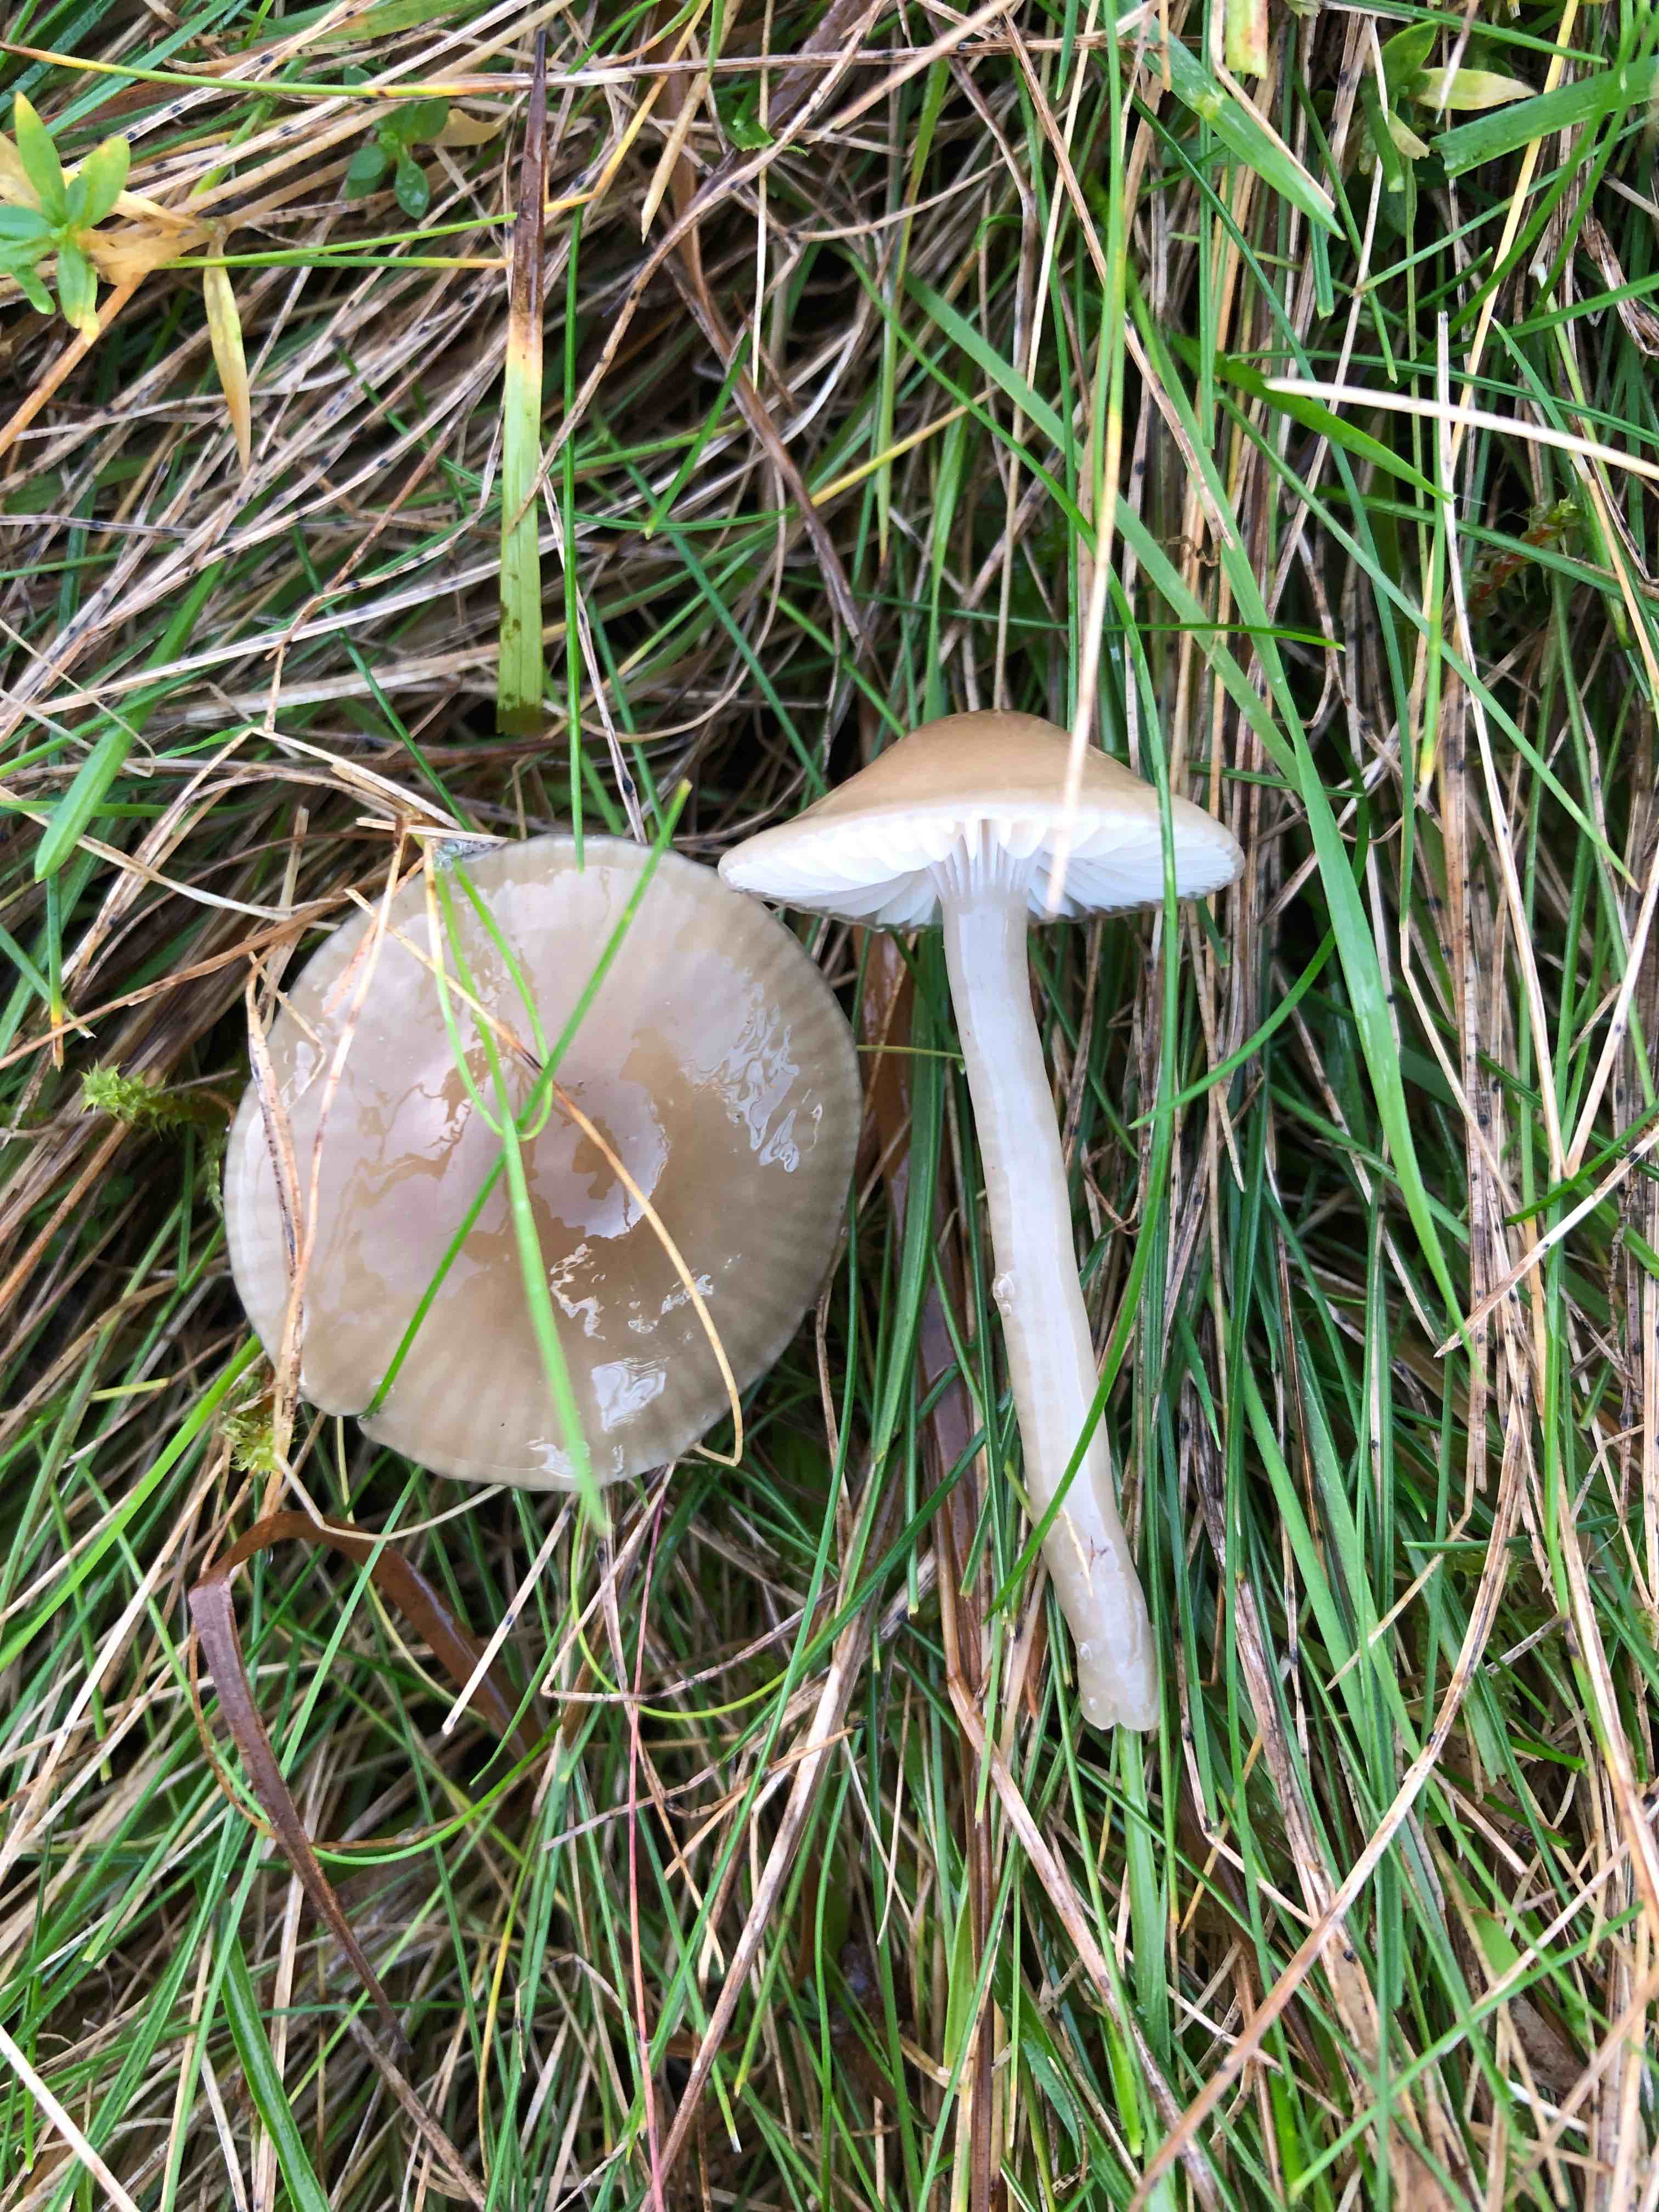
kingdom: Fungi
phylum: Basidiomycota
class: Agaricomycetes
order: Agaricales
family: Hygrophoraceae
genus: Gliophorus
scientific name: Gliophorus irrigatus
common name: slimet vokshat
